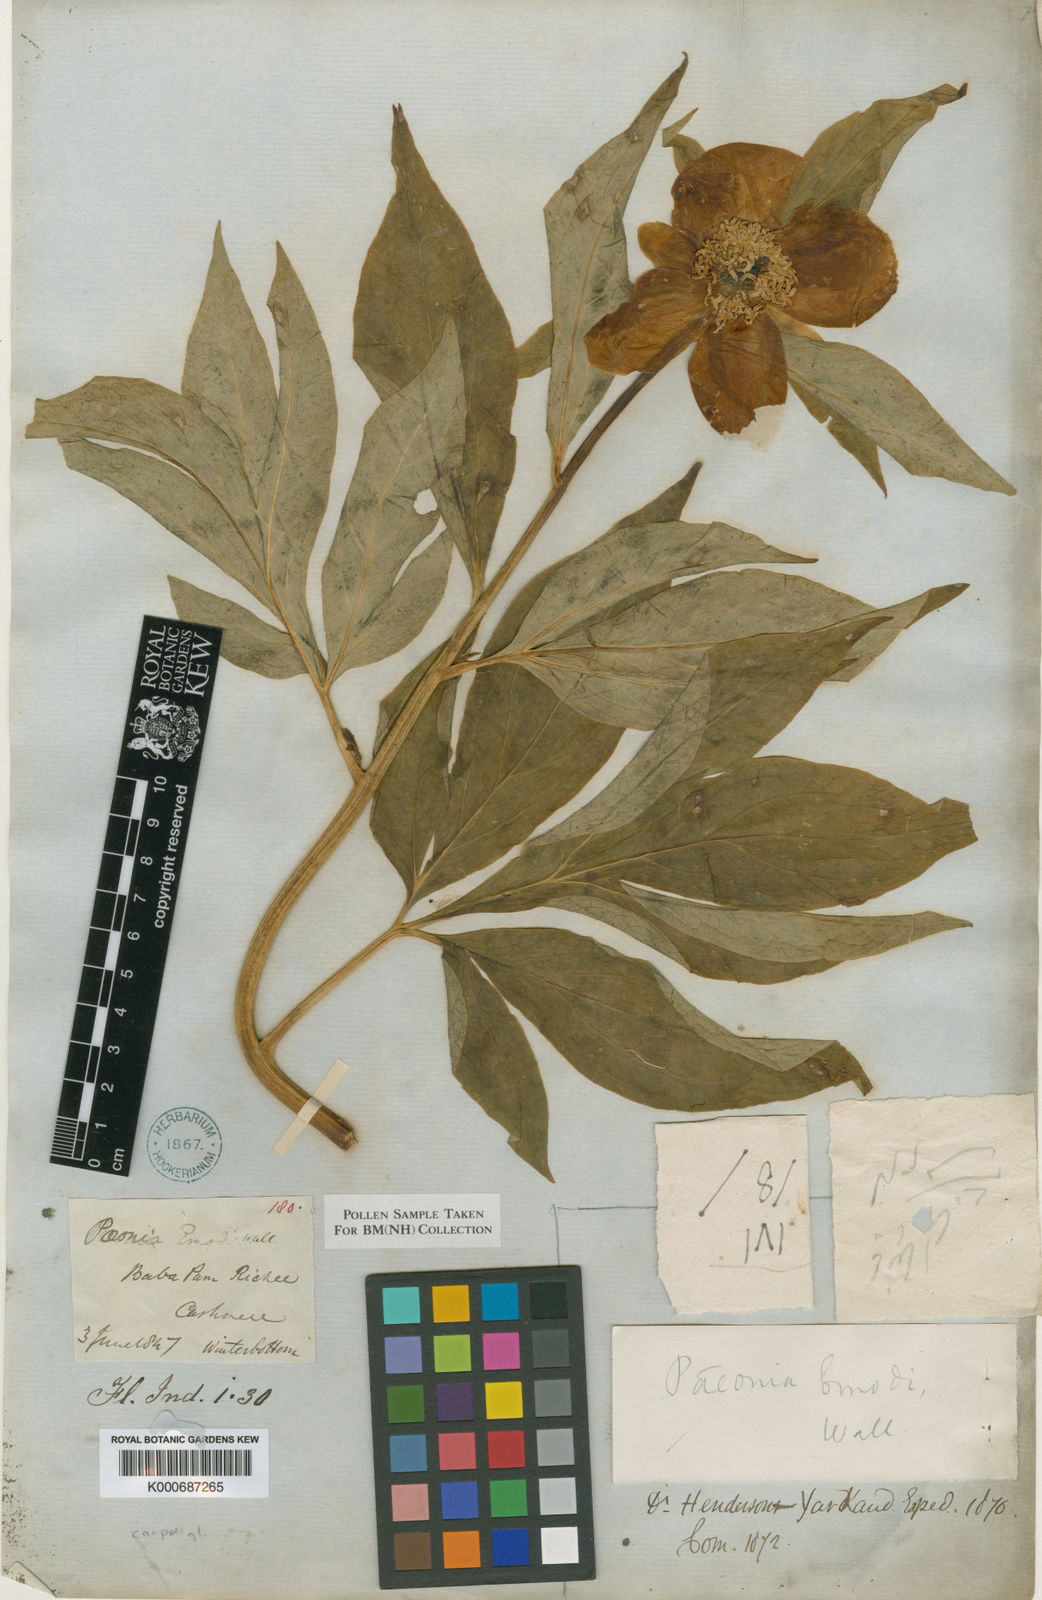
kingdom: Plantae
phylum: Tracheophyta
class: Magnoliopsida
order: Saxifragales
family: Paeoniaceae
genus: Paeonia
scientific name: Paeonia
